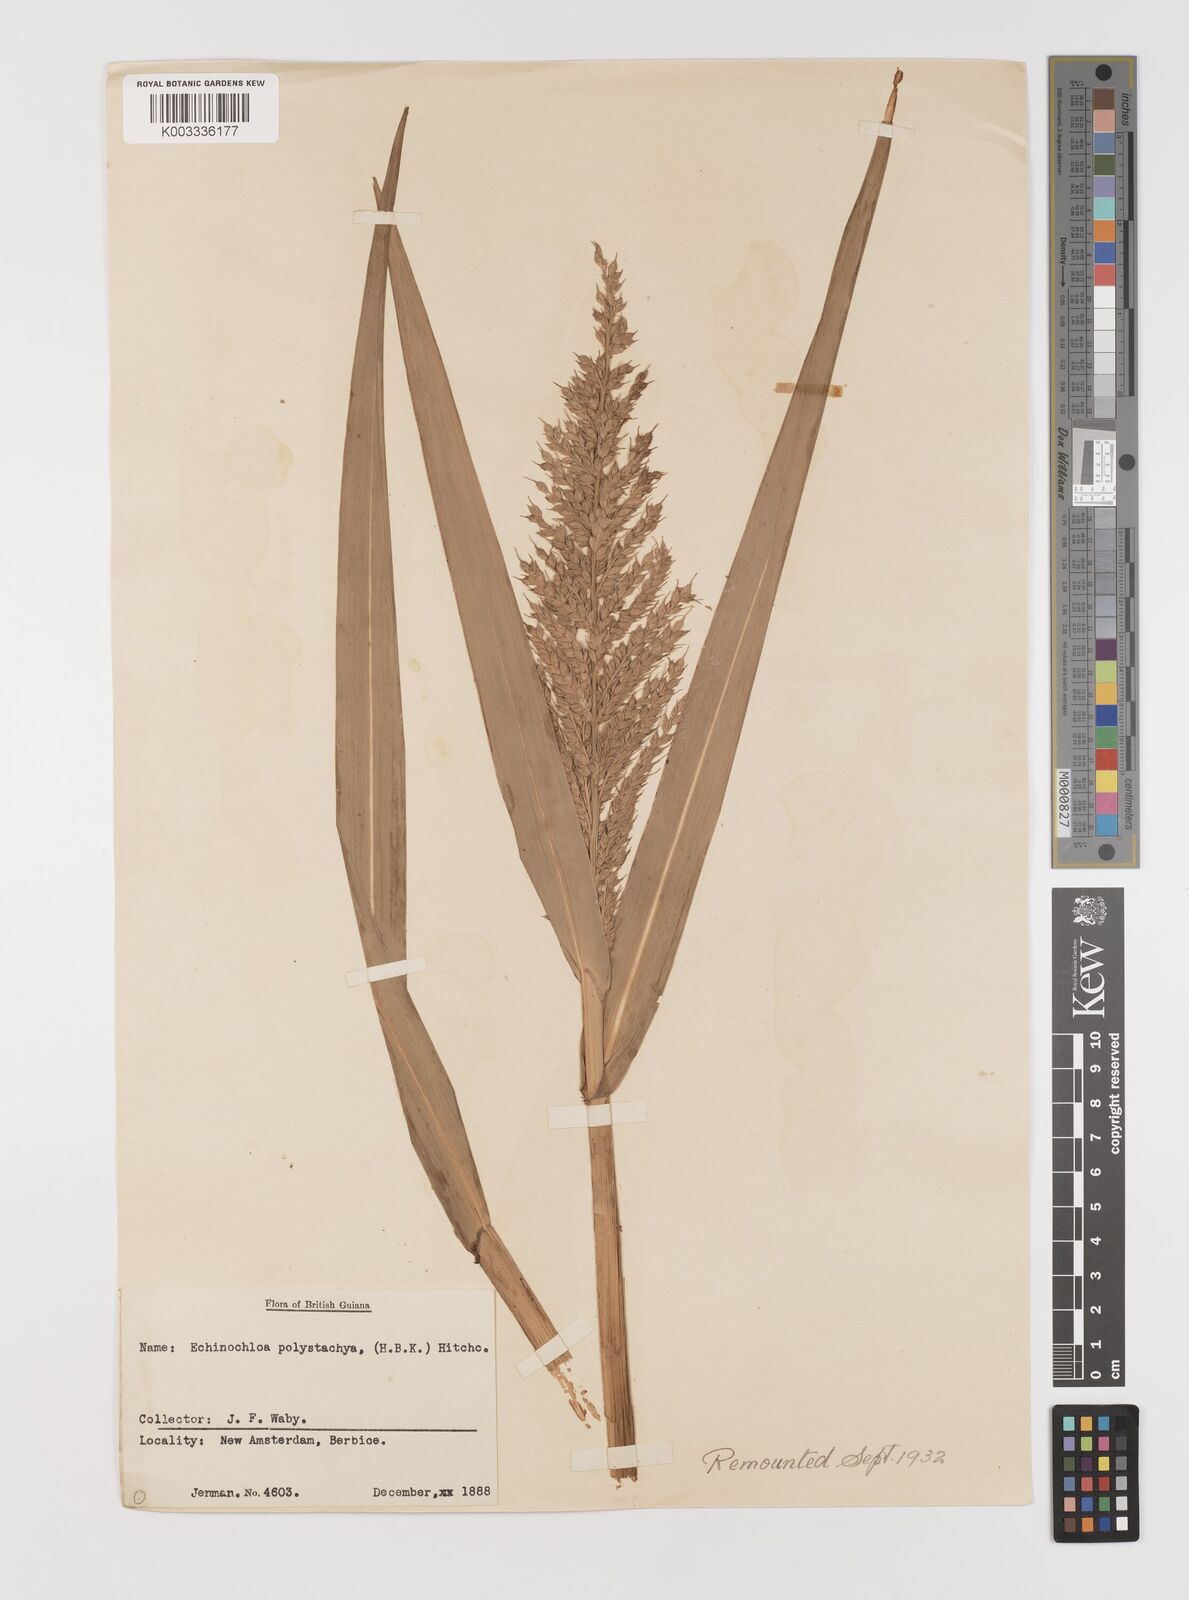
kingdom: Plantae
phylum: Tracheophyta
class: Liliopsida
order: Poales
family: Poaceae
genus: Pseudechinolaena
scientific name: Pseudechinolaena polystachya
